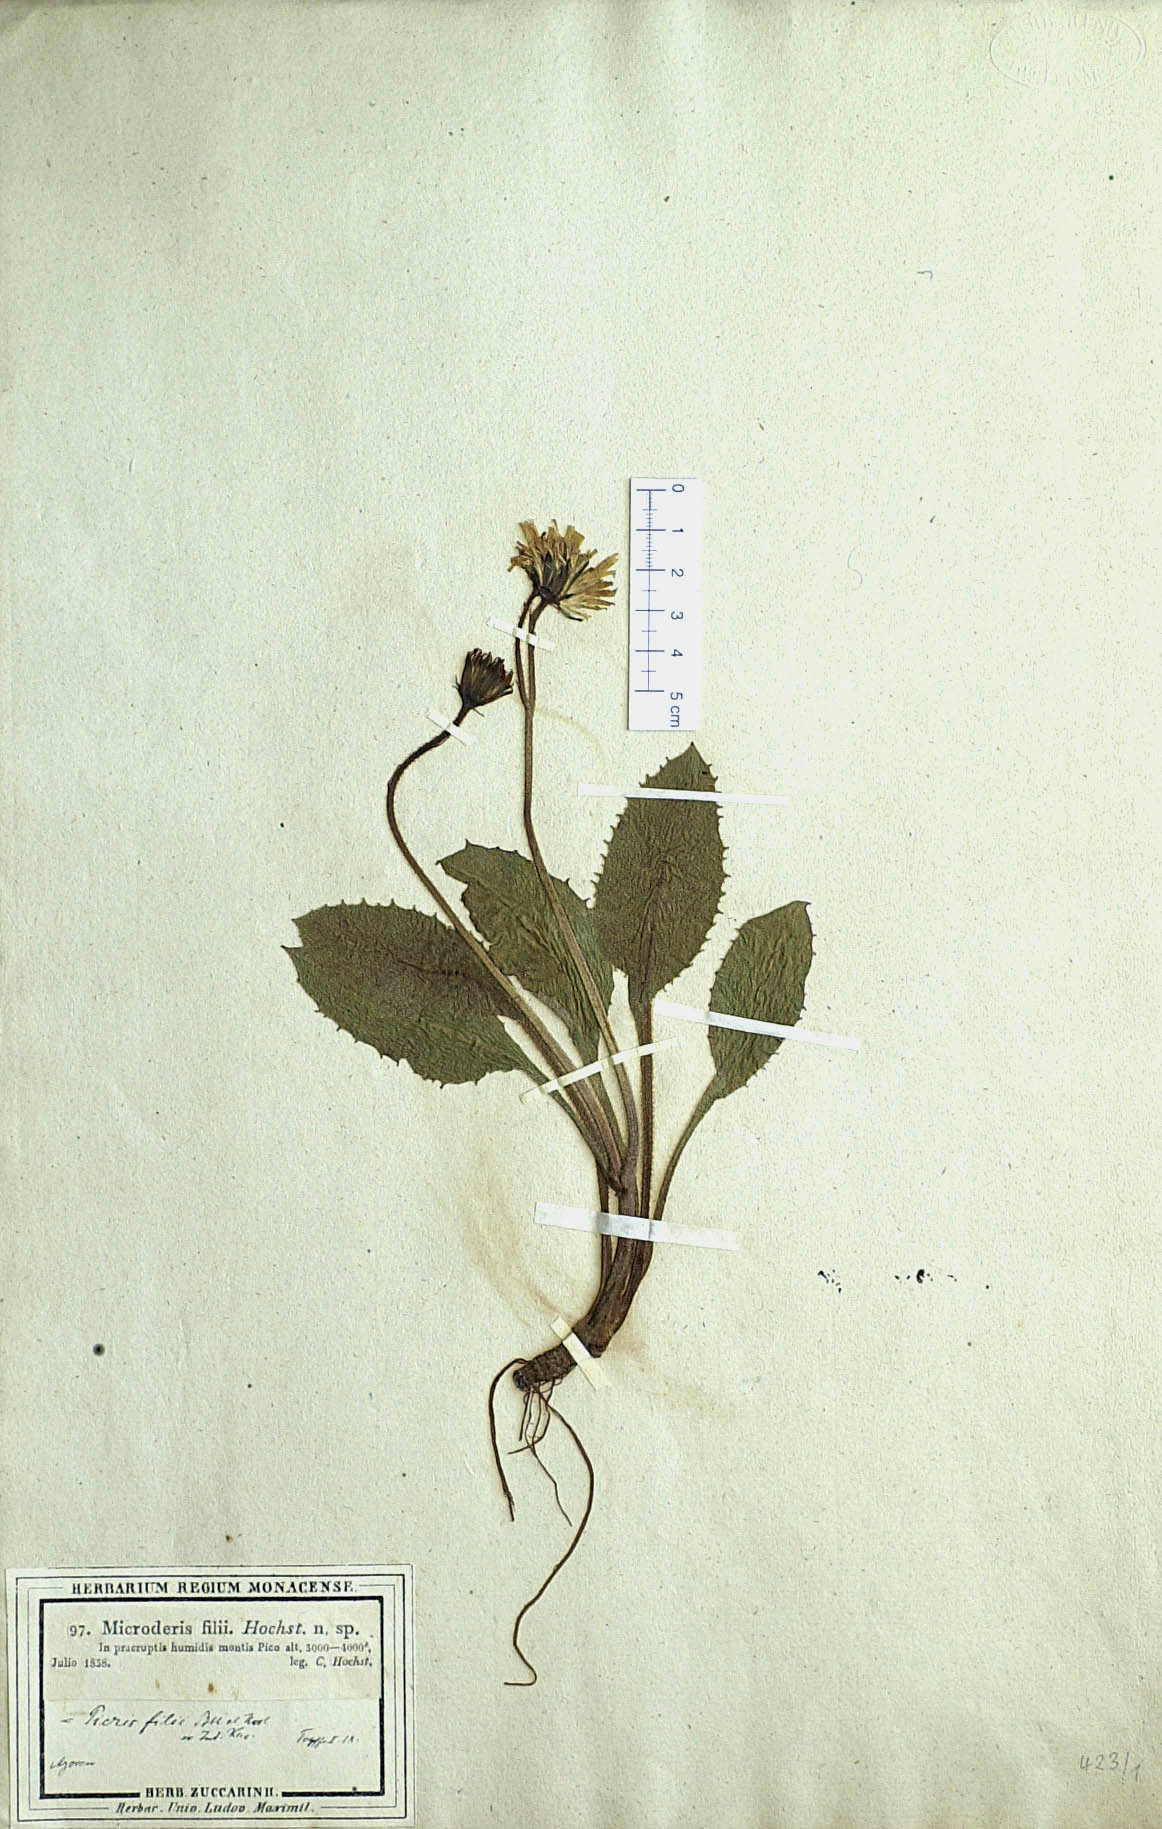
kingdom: Plantae
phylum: Tracheophyta
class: Magnoliopsida
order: Asterales
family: Asteraceae
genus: Leontodon
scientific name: Leontodon filii
